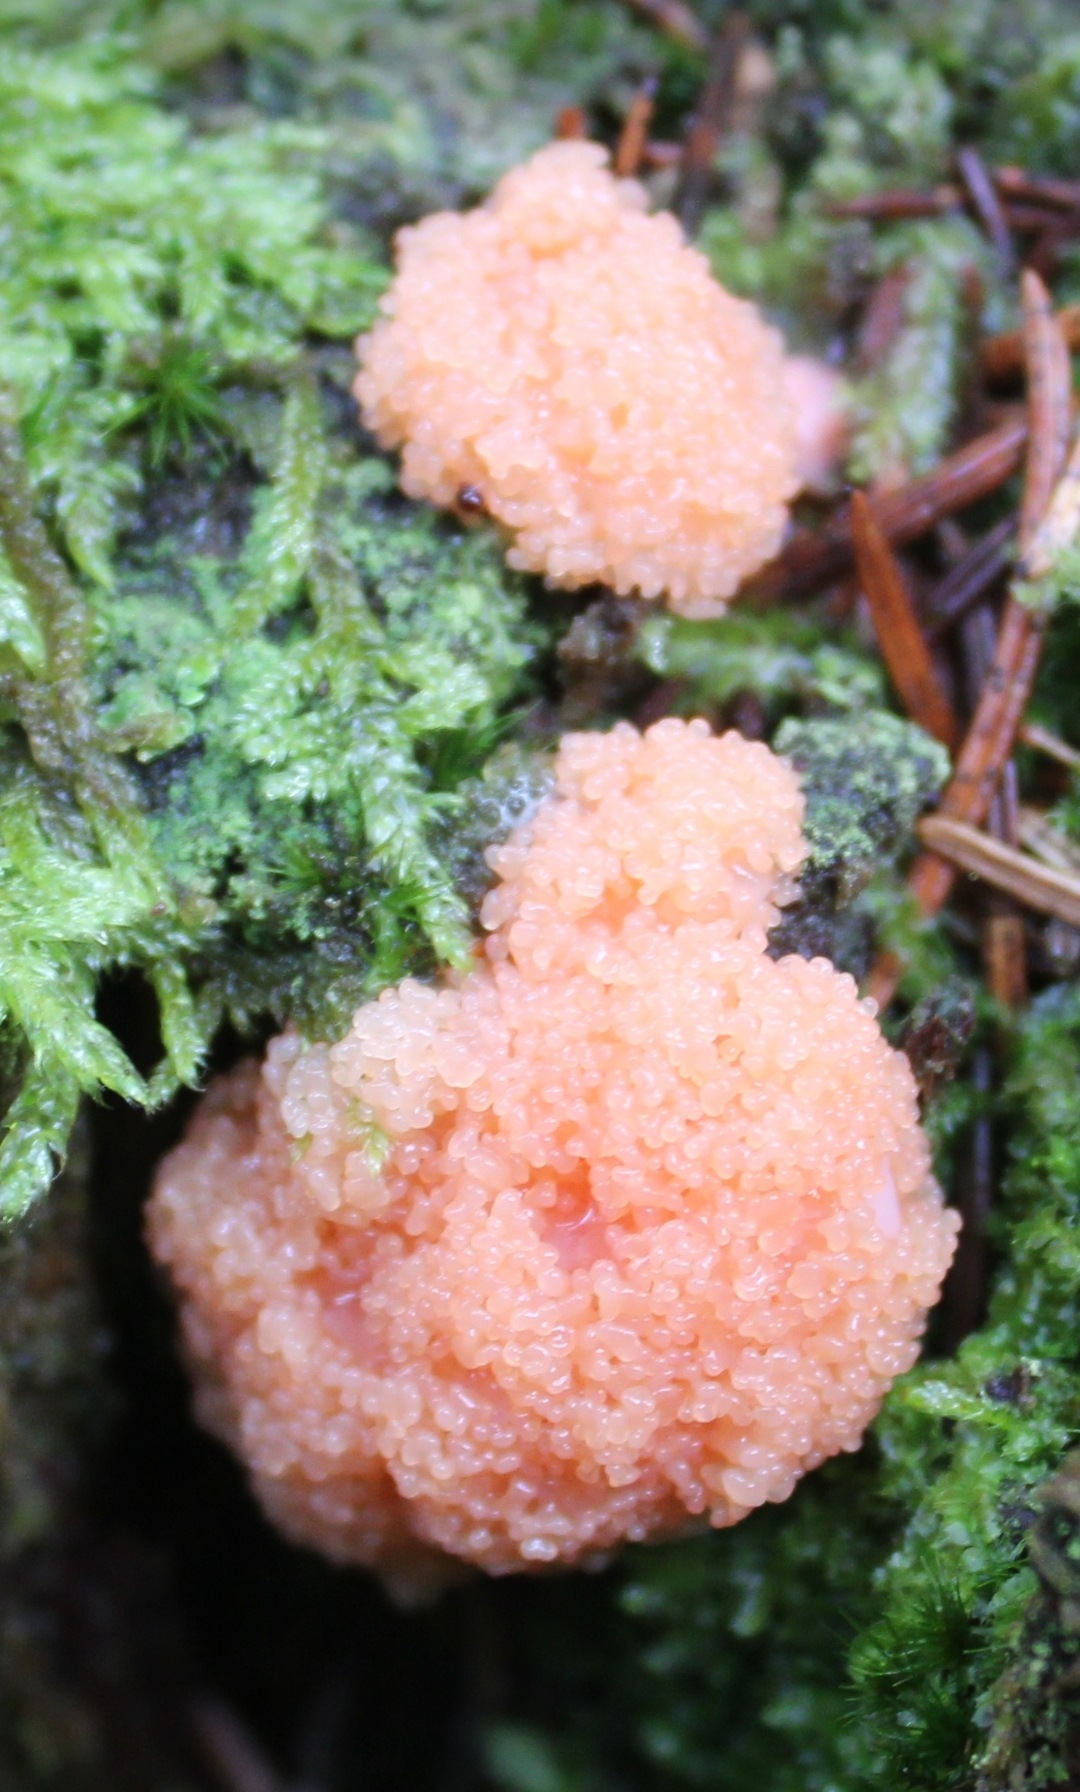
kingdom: Protozoa
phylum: Mycetozoa
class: Myxomycetes
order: Cribrariales
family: Tubiferaceae
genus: Tubifera
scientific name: Tubifera ferruginosa
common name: Kanel-støvrør
